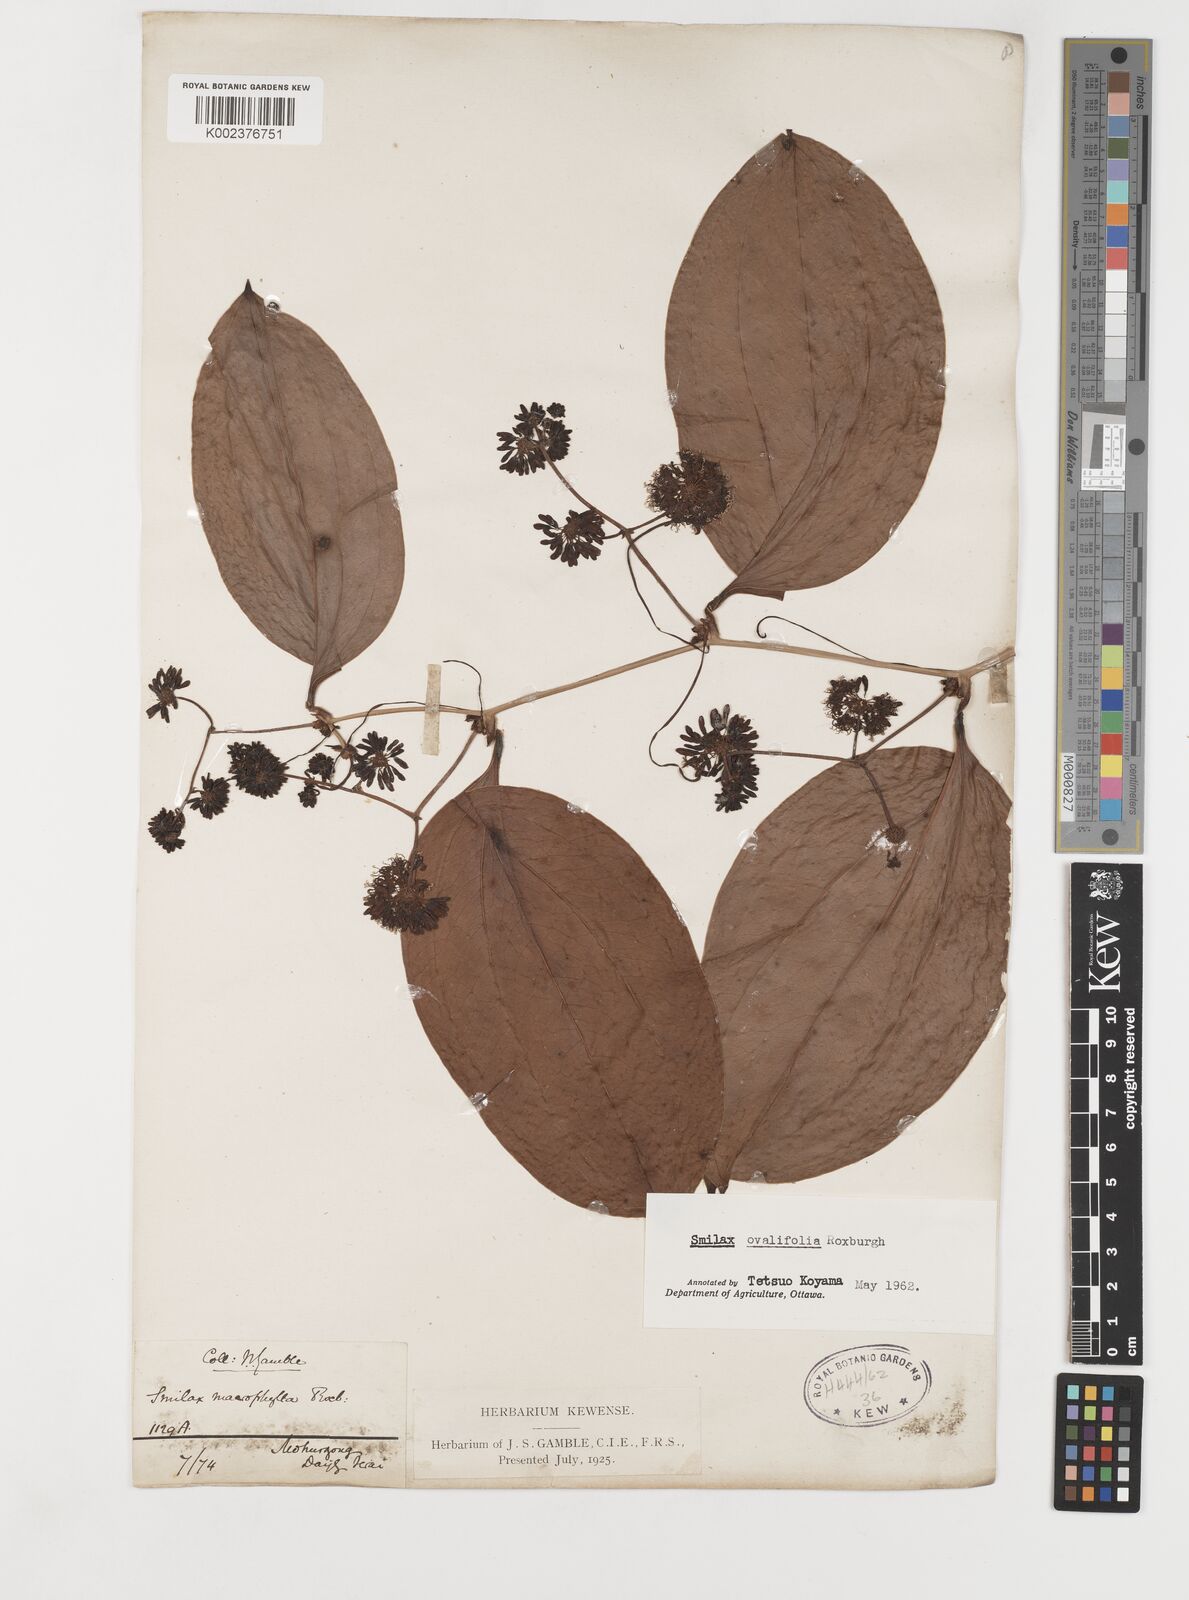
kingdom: Plantae
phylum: Tracheophyta
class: Liliopsida
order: Liliales
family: Smilacaceae
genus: Smilax
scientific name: Smilax ovalifolia
